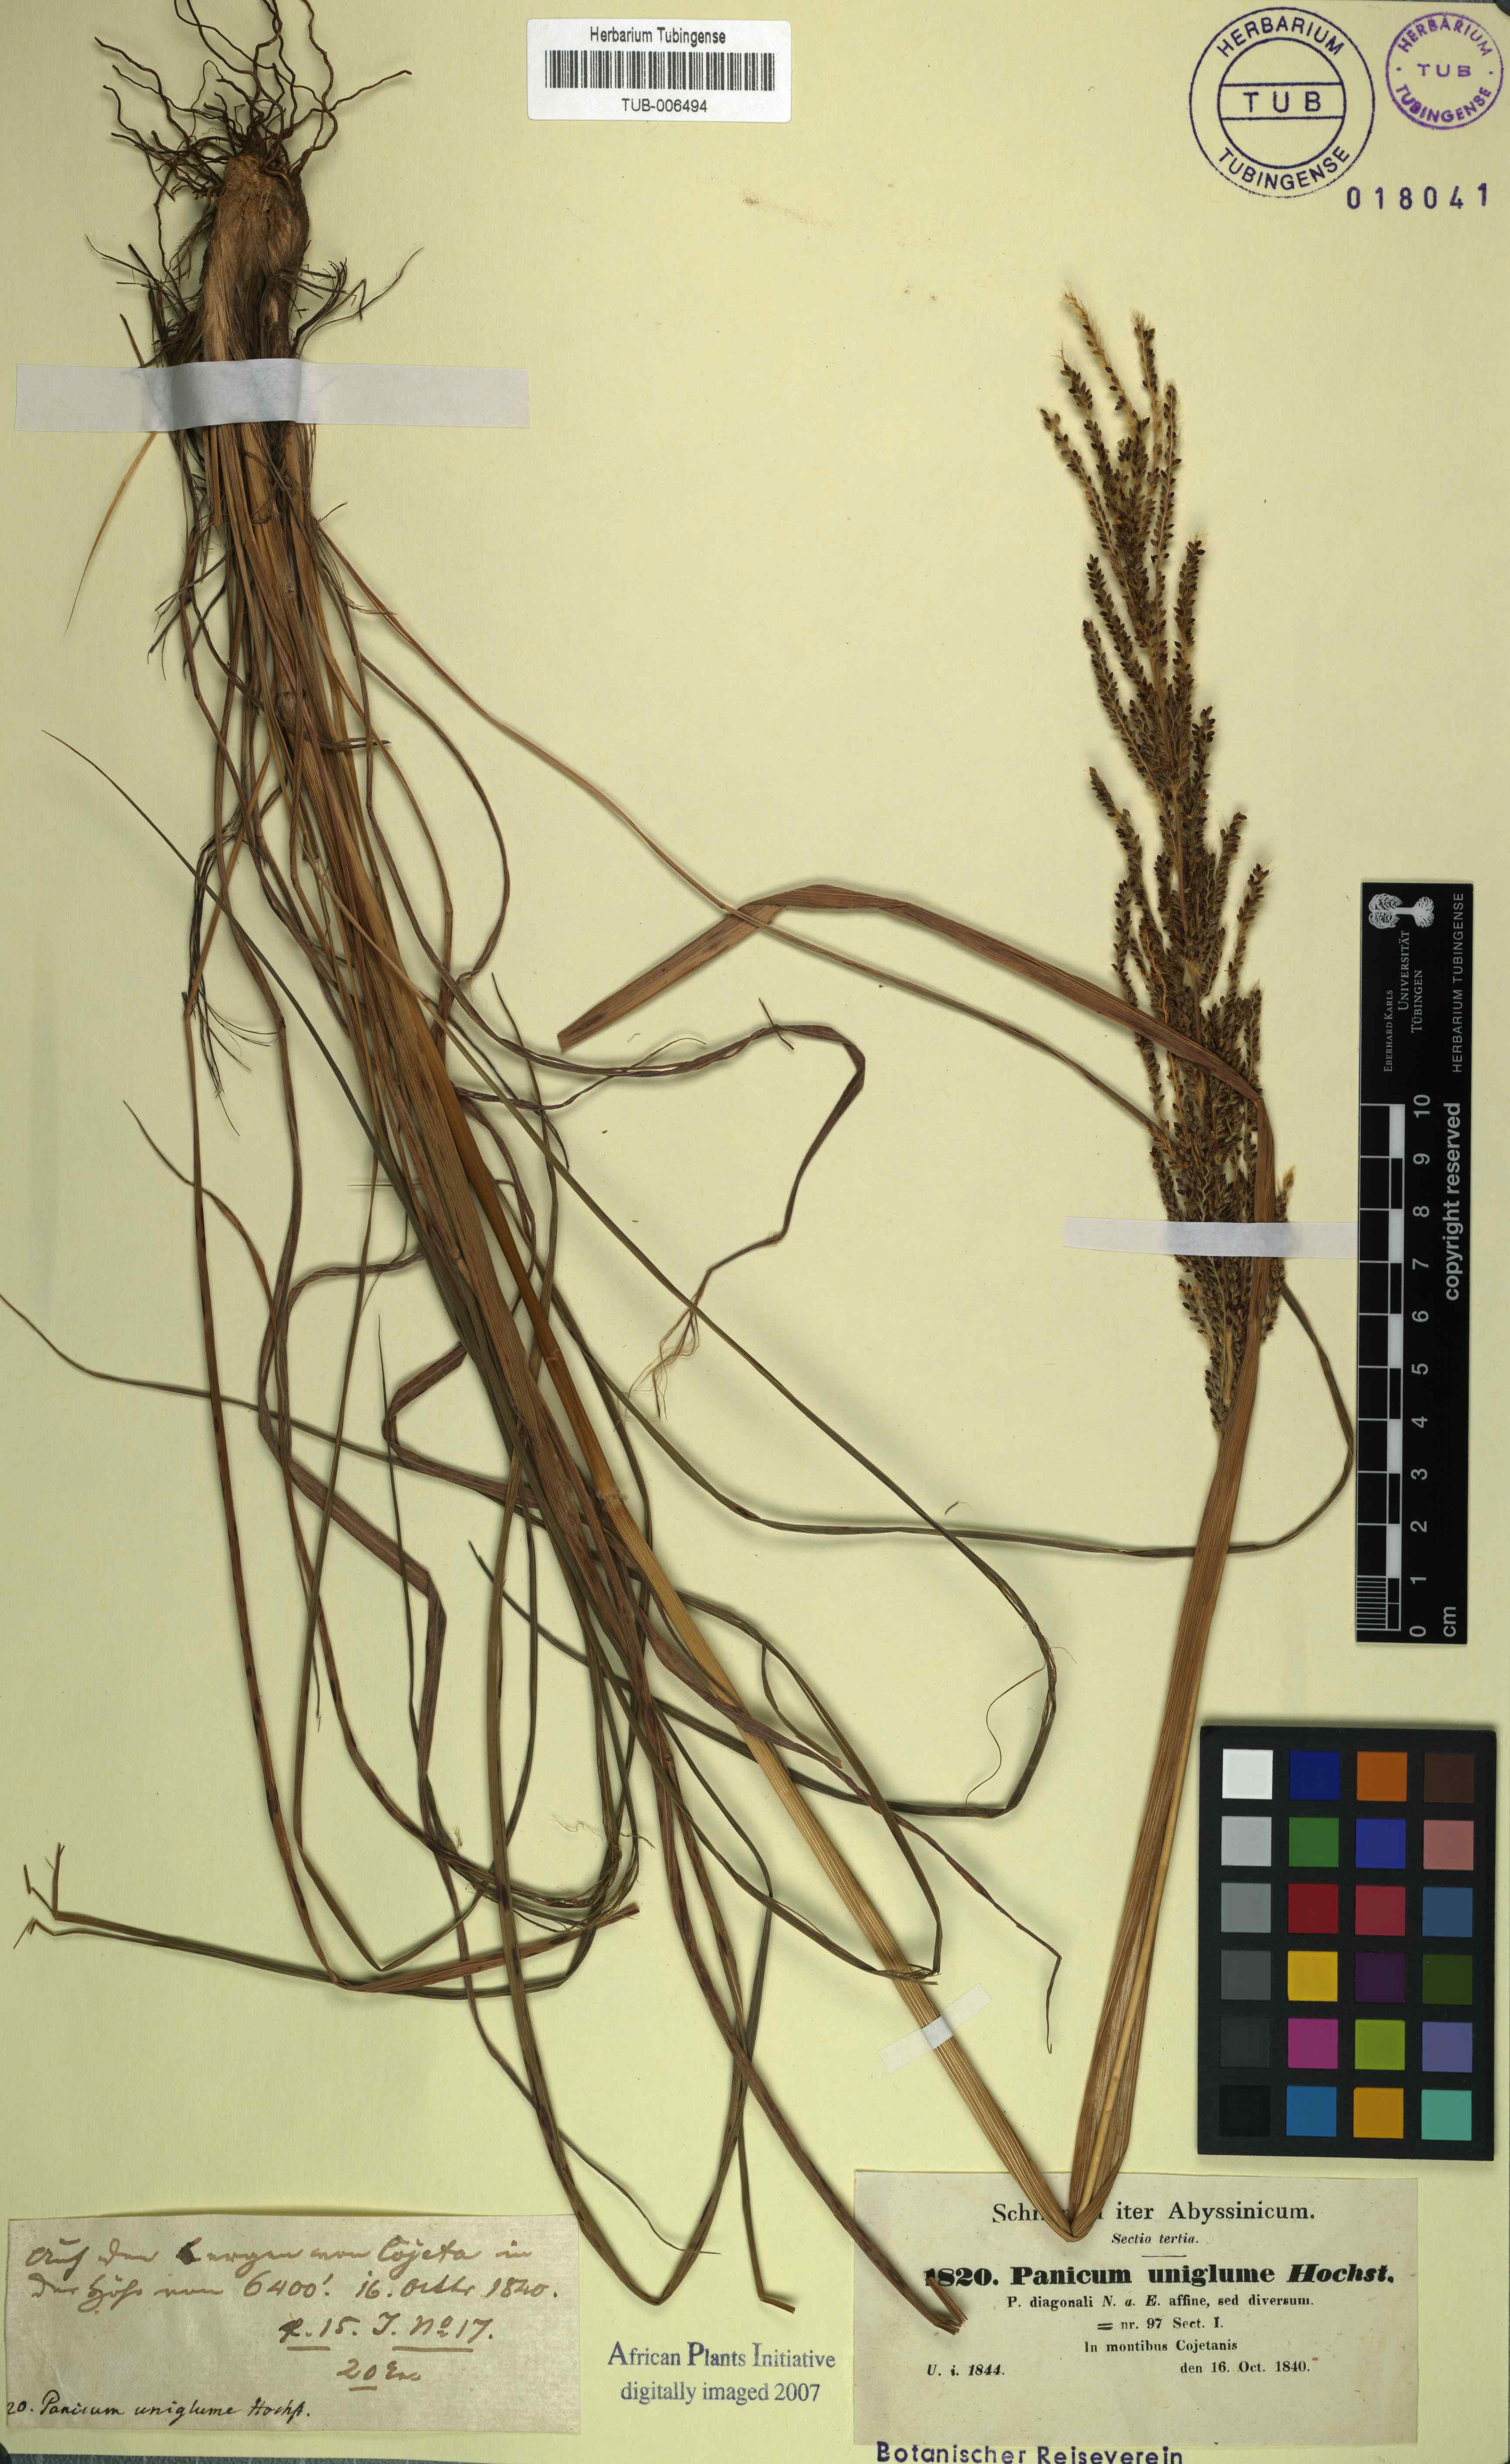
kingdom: Plantae
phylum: Tracheophyta
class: Liliopsida
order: Poales
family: Poaceae
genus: Digitaria
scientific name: Digitaria diagonalis
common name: Brown-seed finger grass
